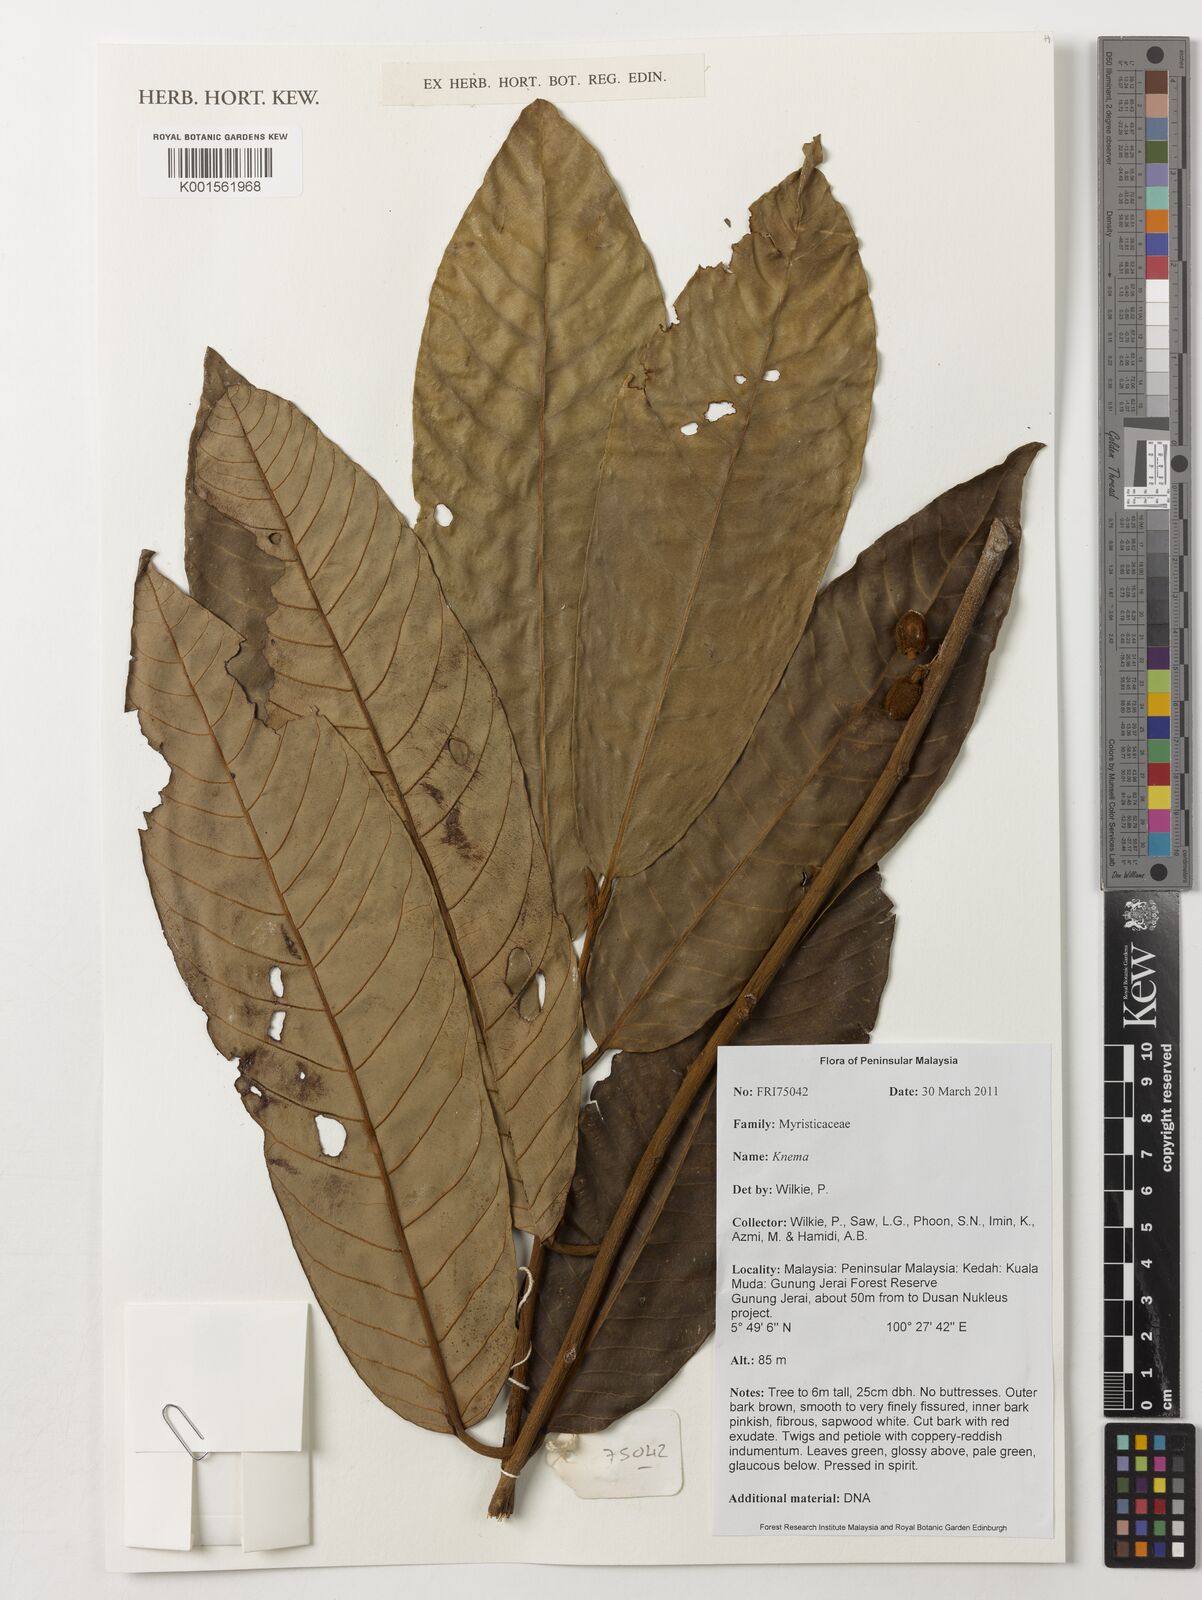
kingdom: Plantae
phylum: Tracheophyta
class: Magnoliopsida
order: Magnoliales
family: Myristicaceae
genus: Knema
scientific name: Knema
